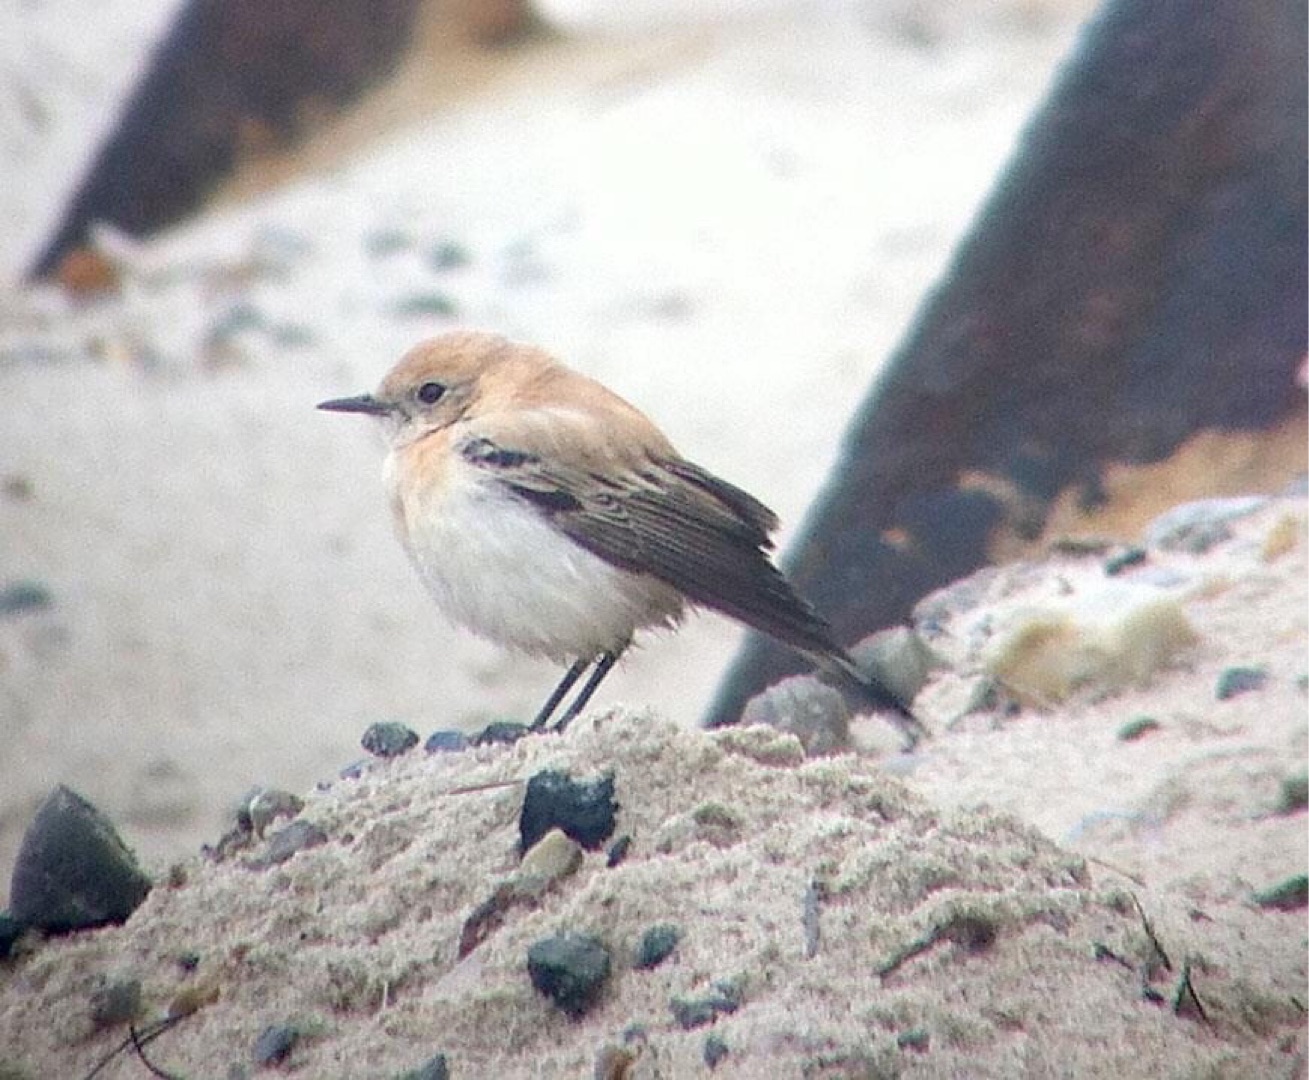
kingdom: Animalia
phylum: Chordata
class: Aves
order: Passeriformes
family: Muscicapidae
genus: Oenanthe
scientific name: Oenanthe hispanica
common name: Vestlig middelhavsstenpikker
